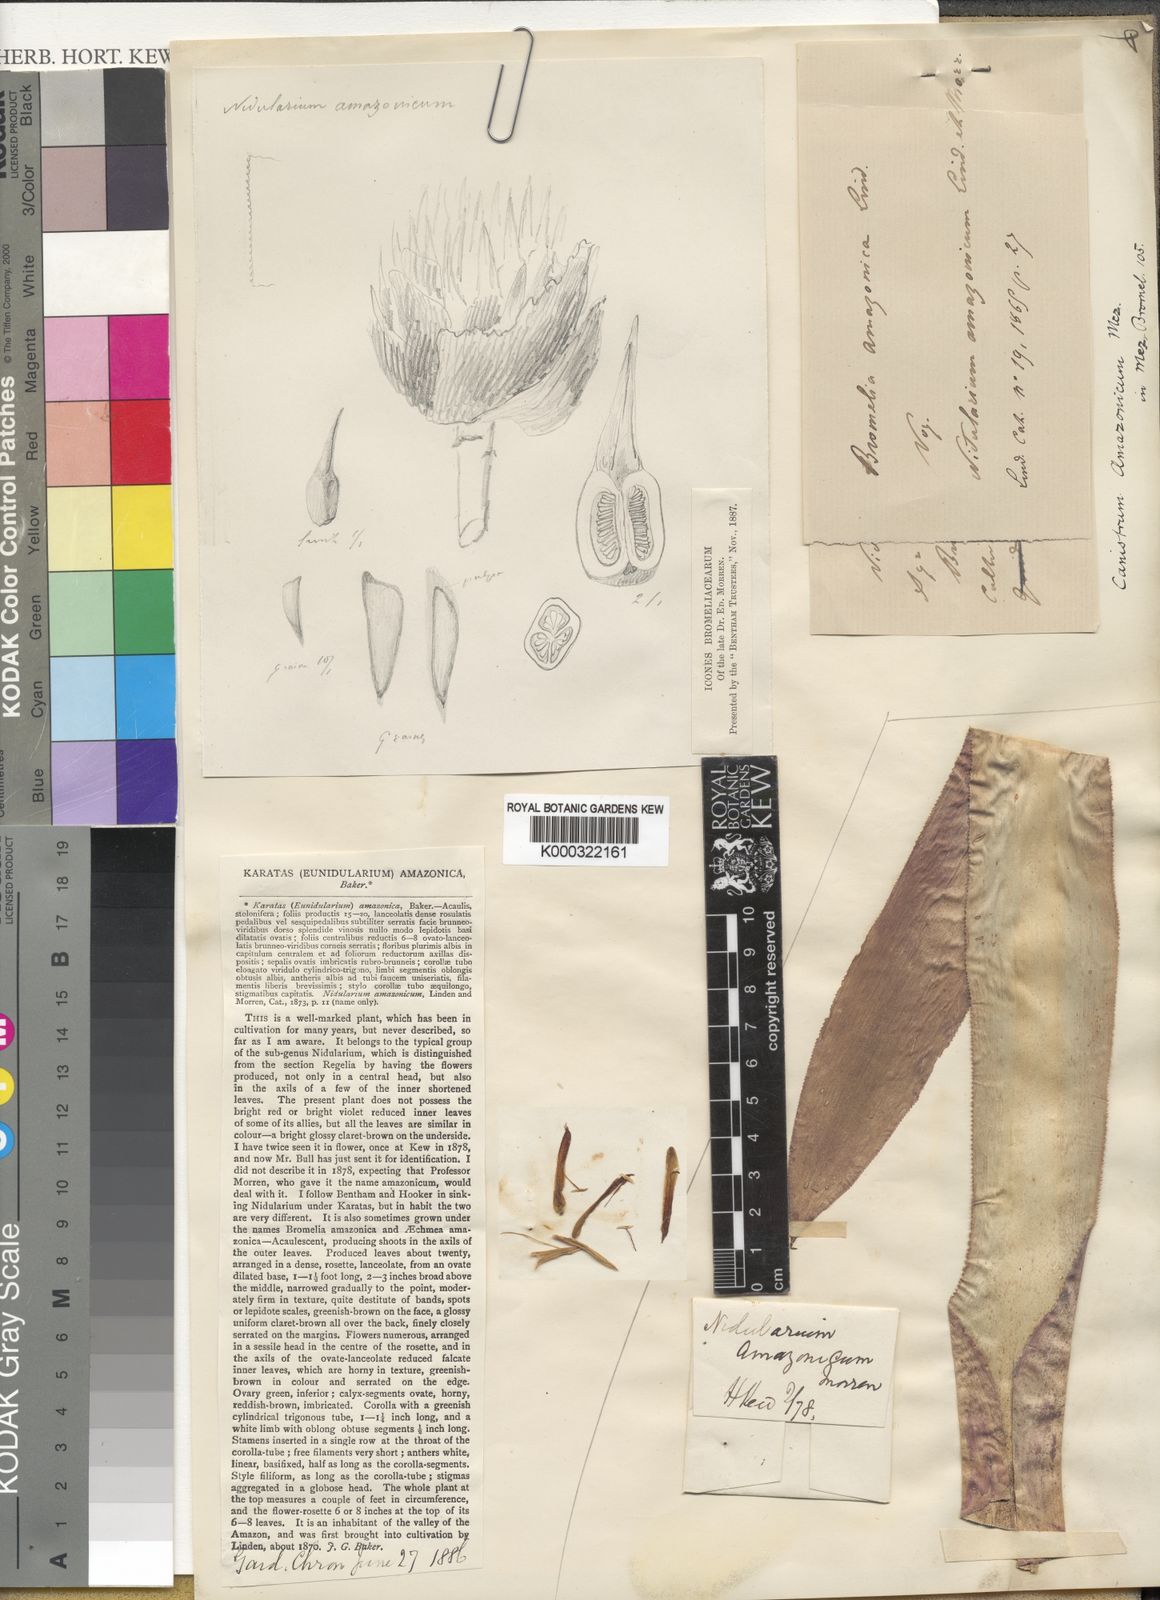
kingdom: Plantae
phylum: Tracheophyta
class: Liliopsida
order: Poales
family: Bromeliaceae
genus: Nidularium
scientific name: Nidularium amazonicum
